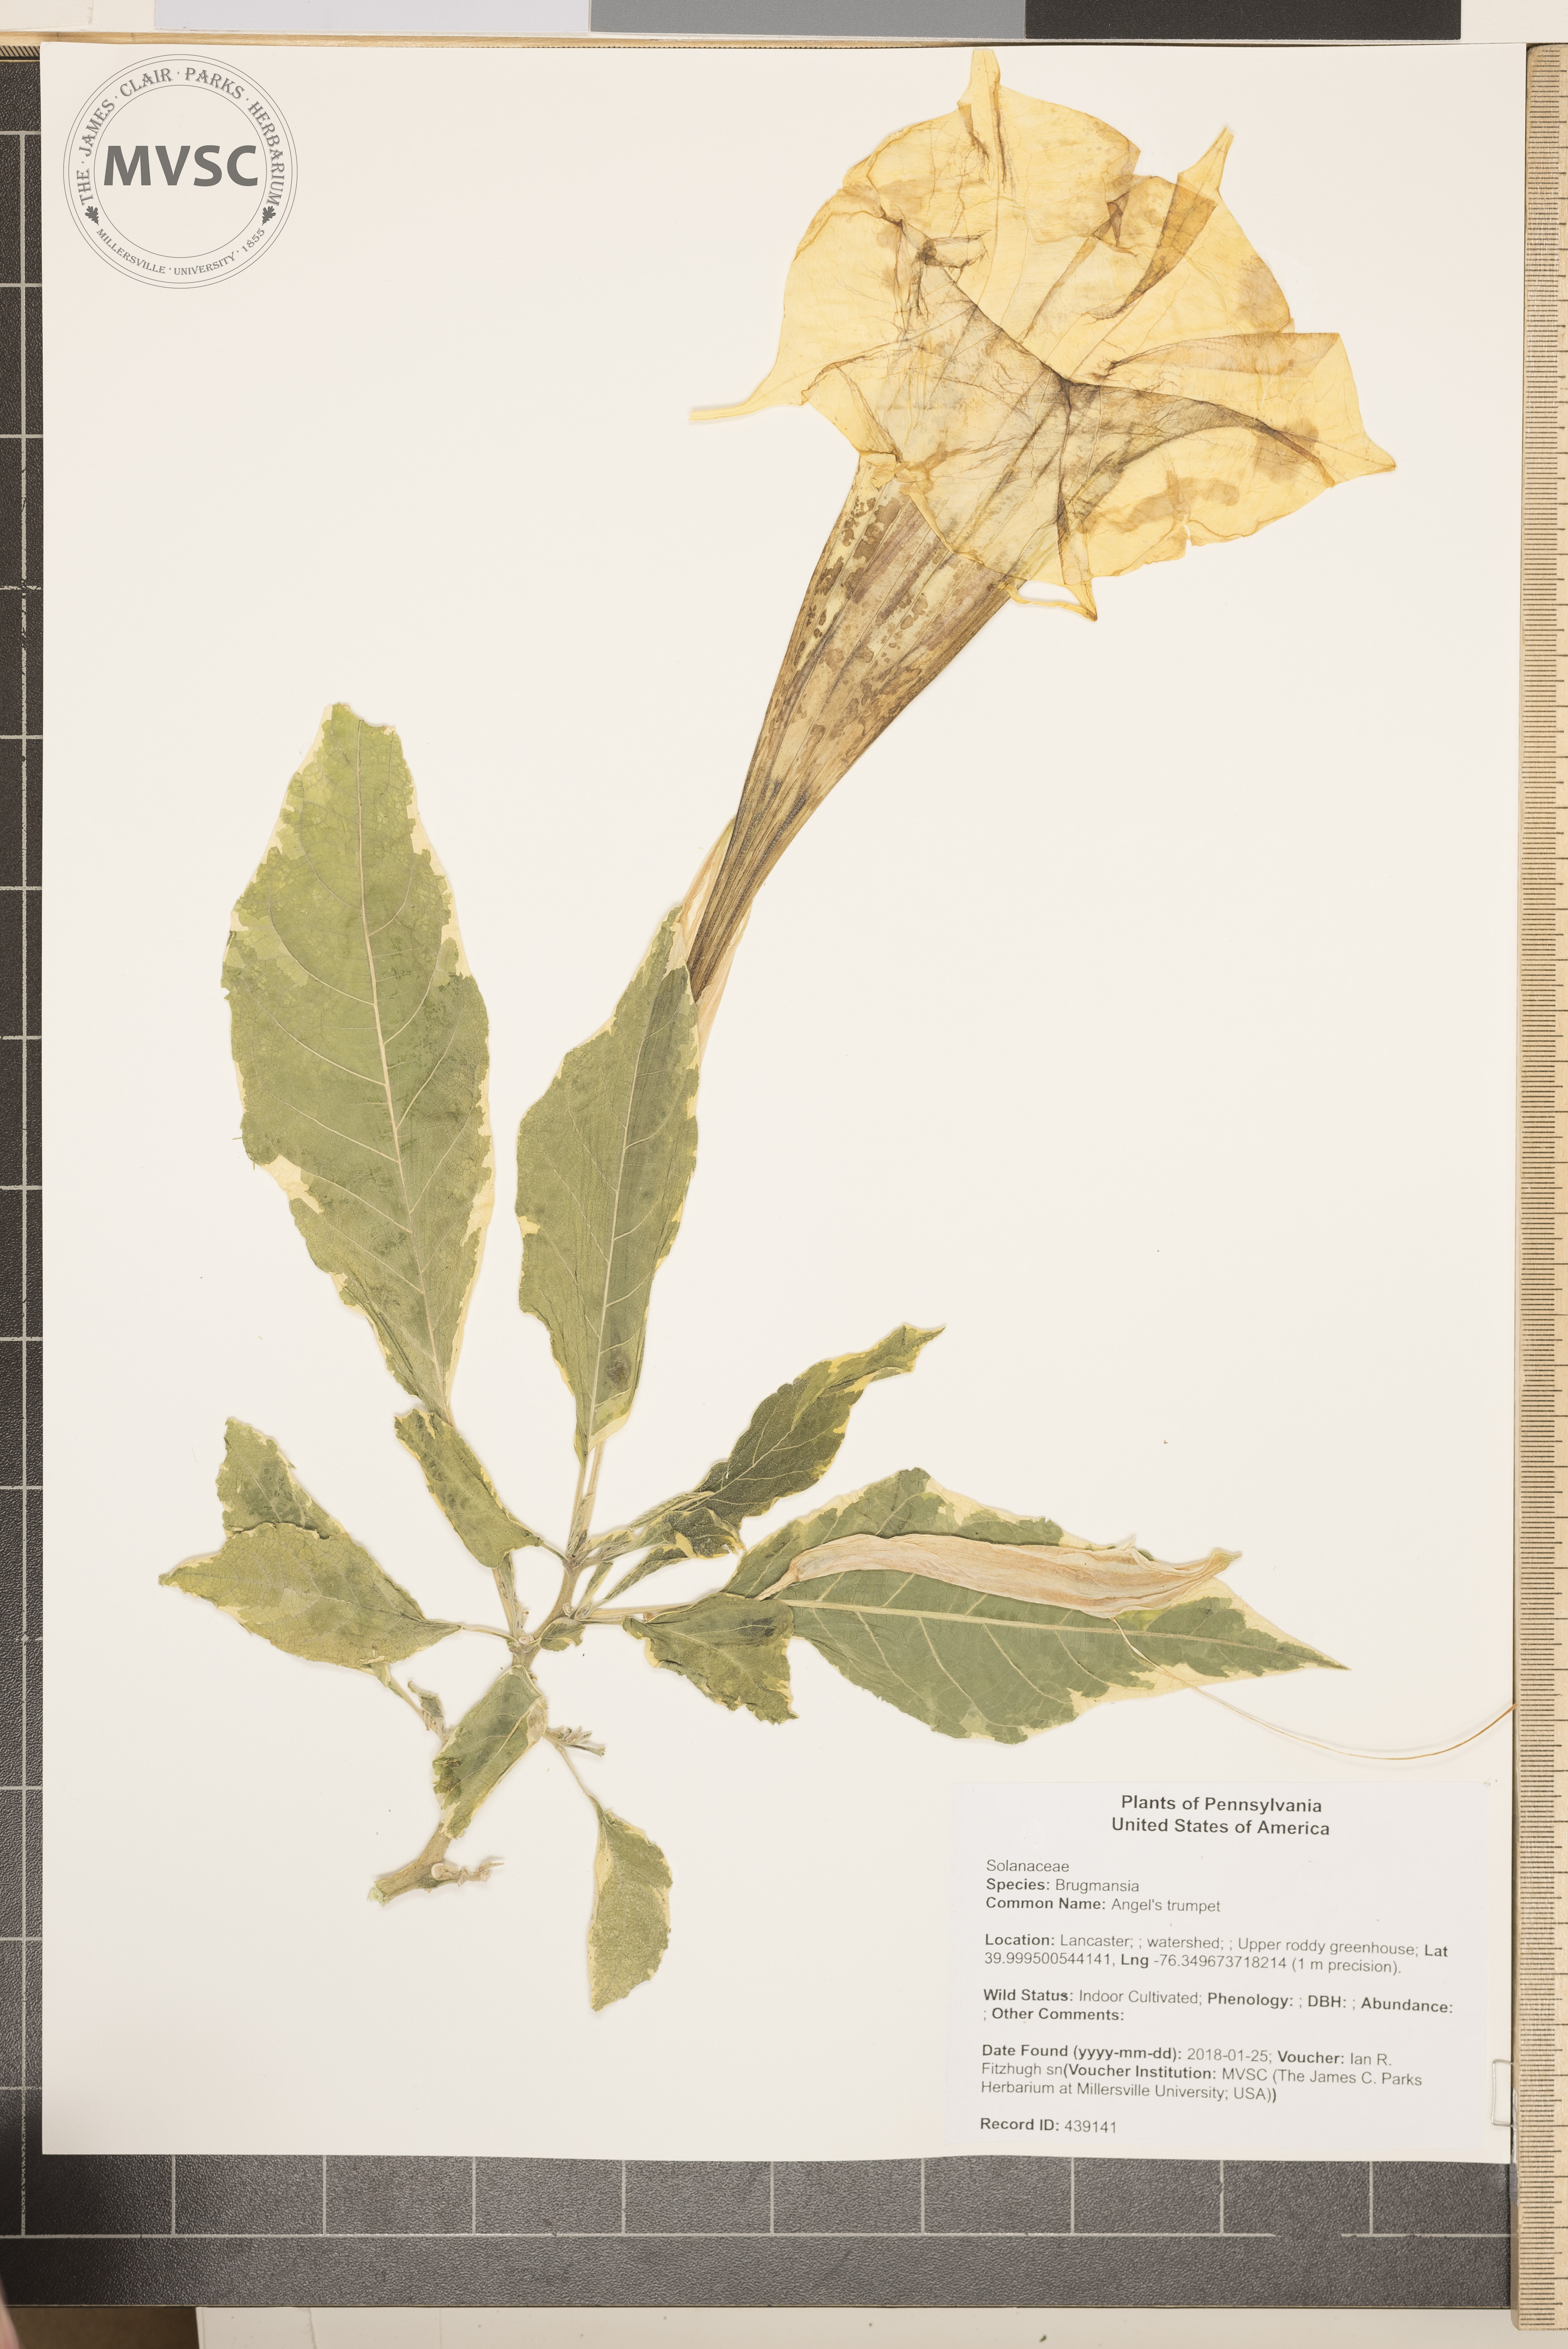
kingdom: Plantae
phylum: Tracheophyta
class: Magnoliopsida
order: Solanales
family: Solanaceae
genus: Brugmansia
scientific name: Brugmansia
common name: Angel's trumpet
